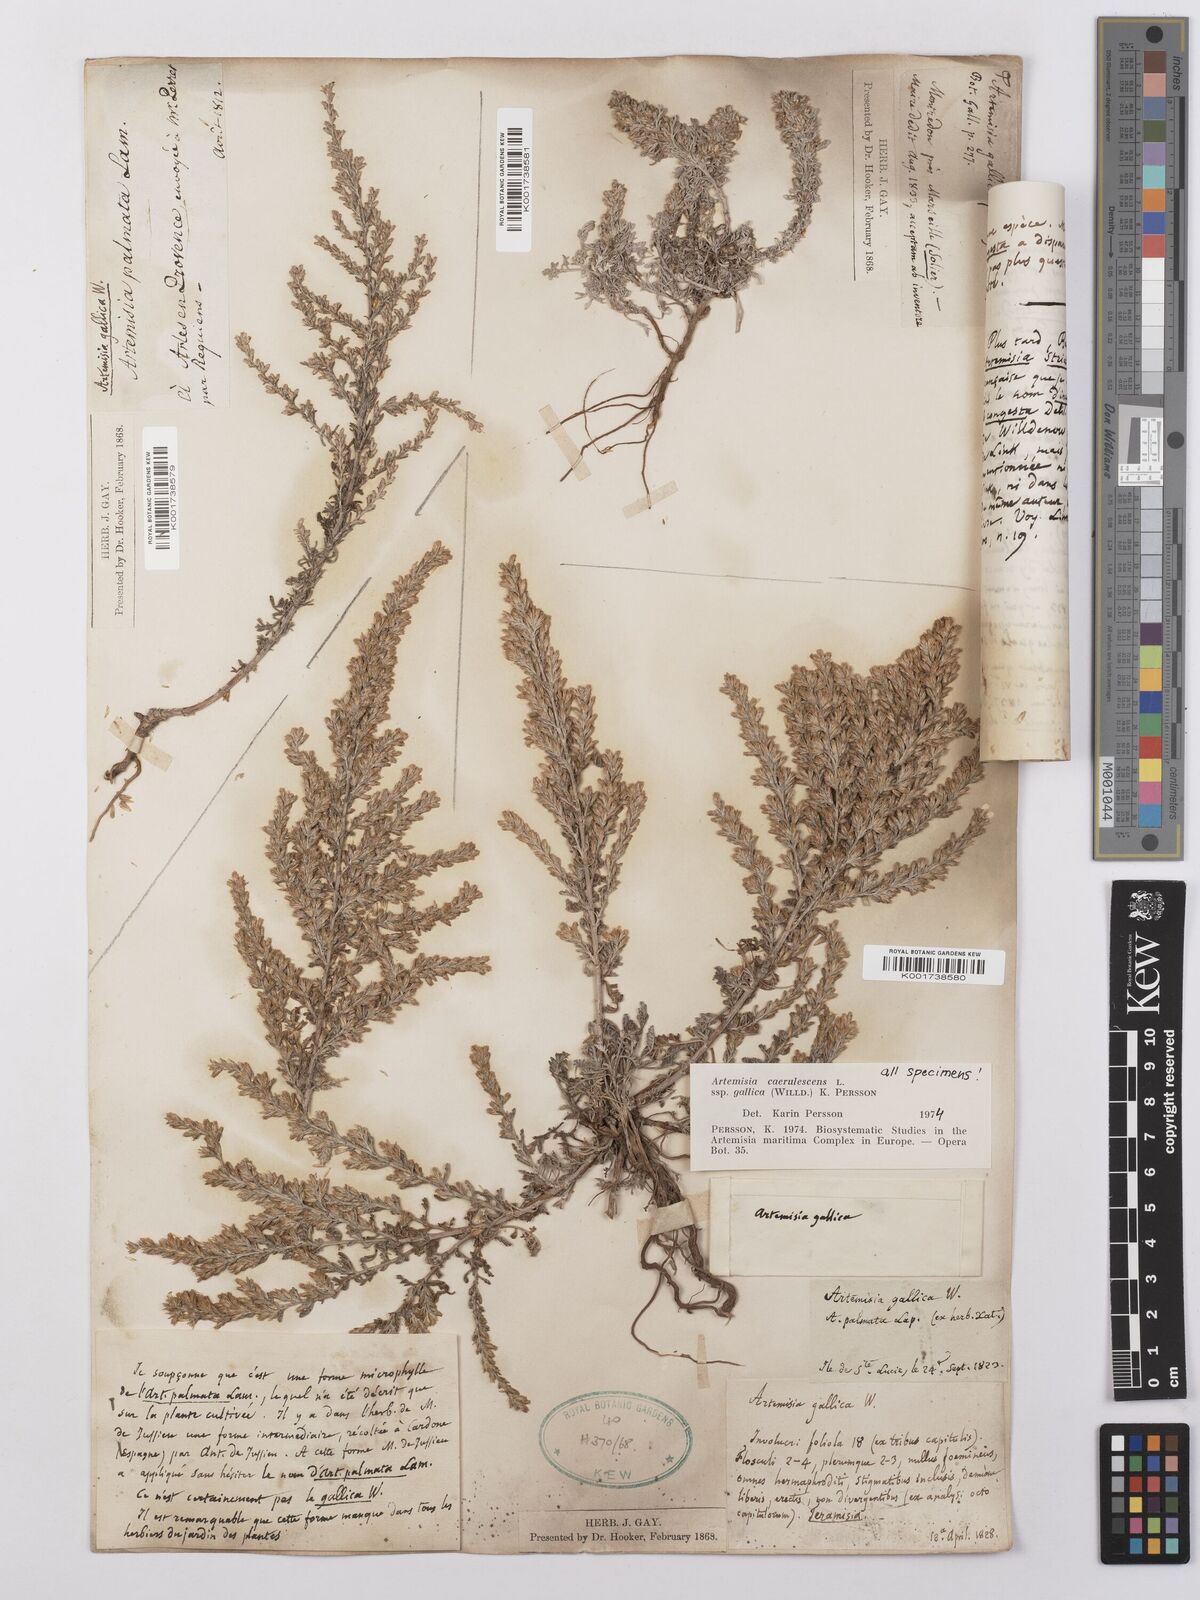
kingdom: Plantae
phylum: Tracheophyta
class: Magnoliopsida
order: Asterales
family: Asteraceae
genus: Artemisia
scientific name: Artemisia caerulescens
